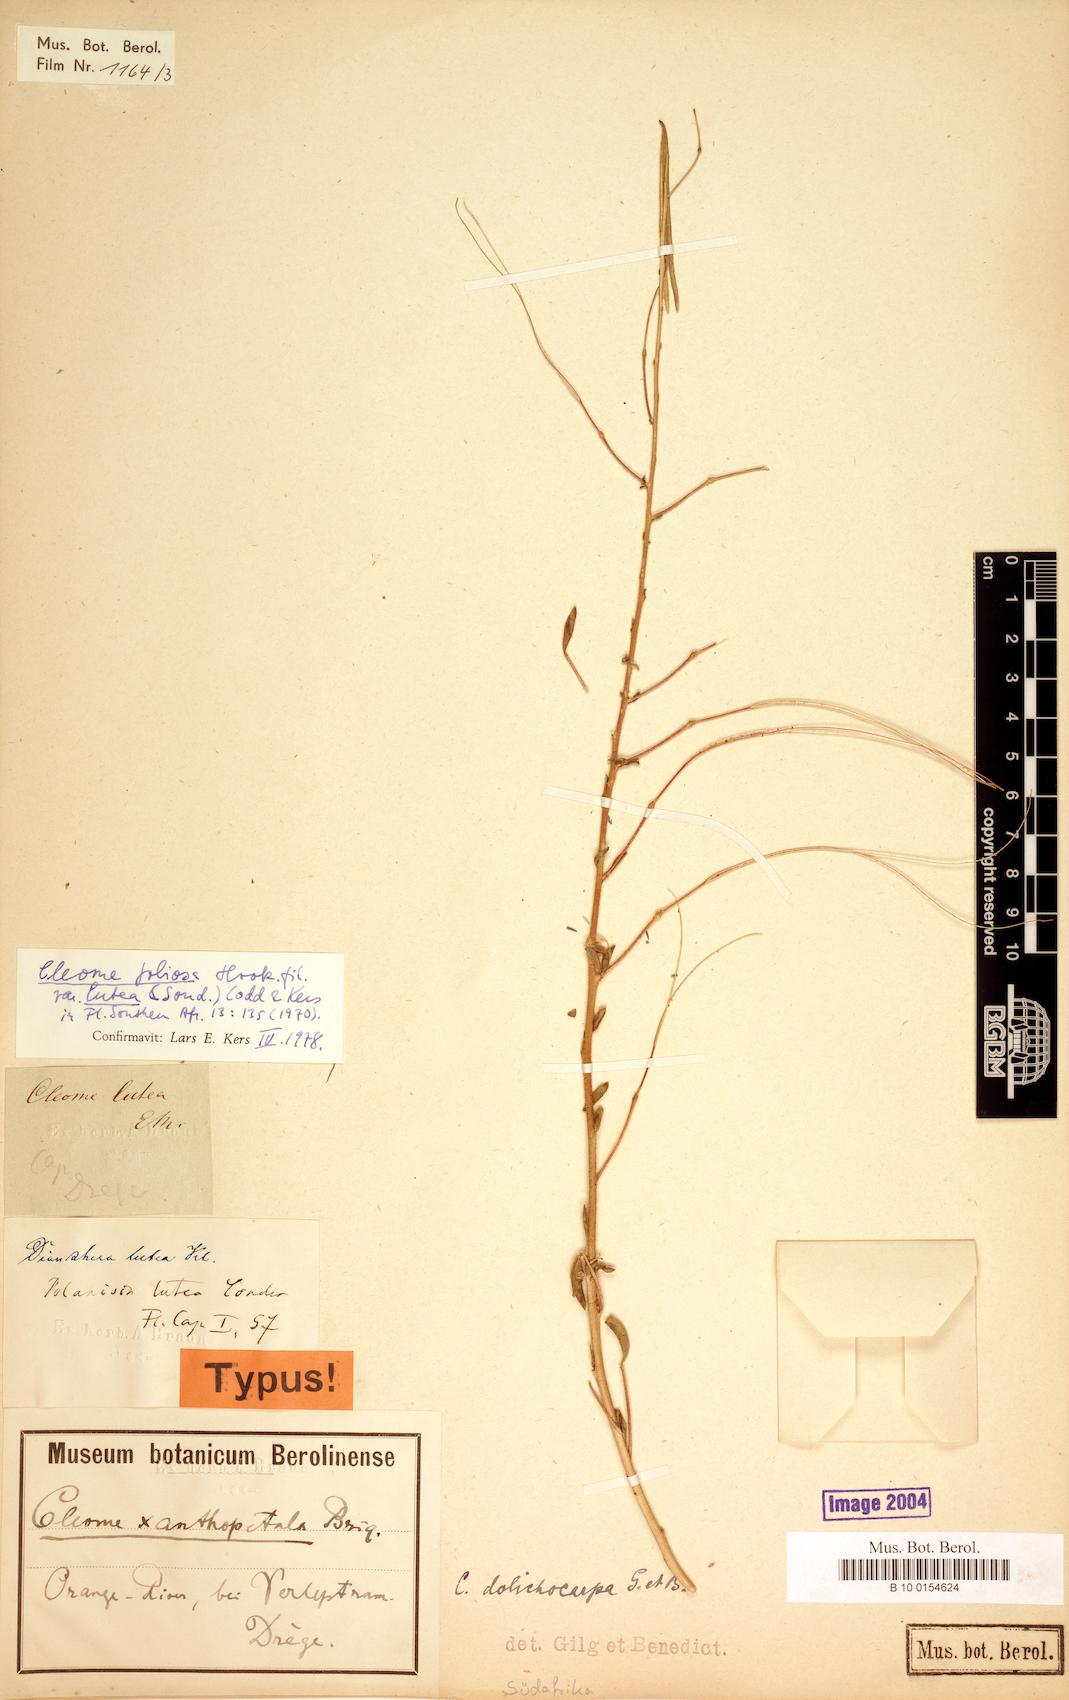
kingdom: Plantae
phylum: Tracheophyta
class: Magnoliopsida
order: Brassicales
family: Cleomaceae
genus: Kersia
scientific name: Kersia foliosa
